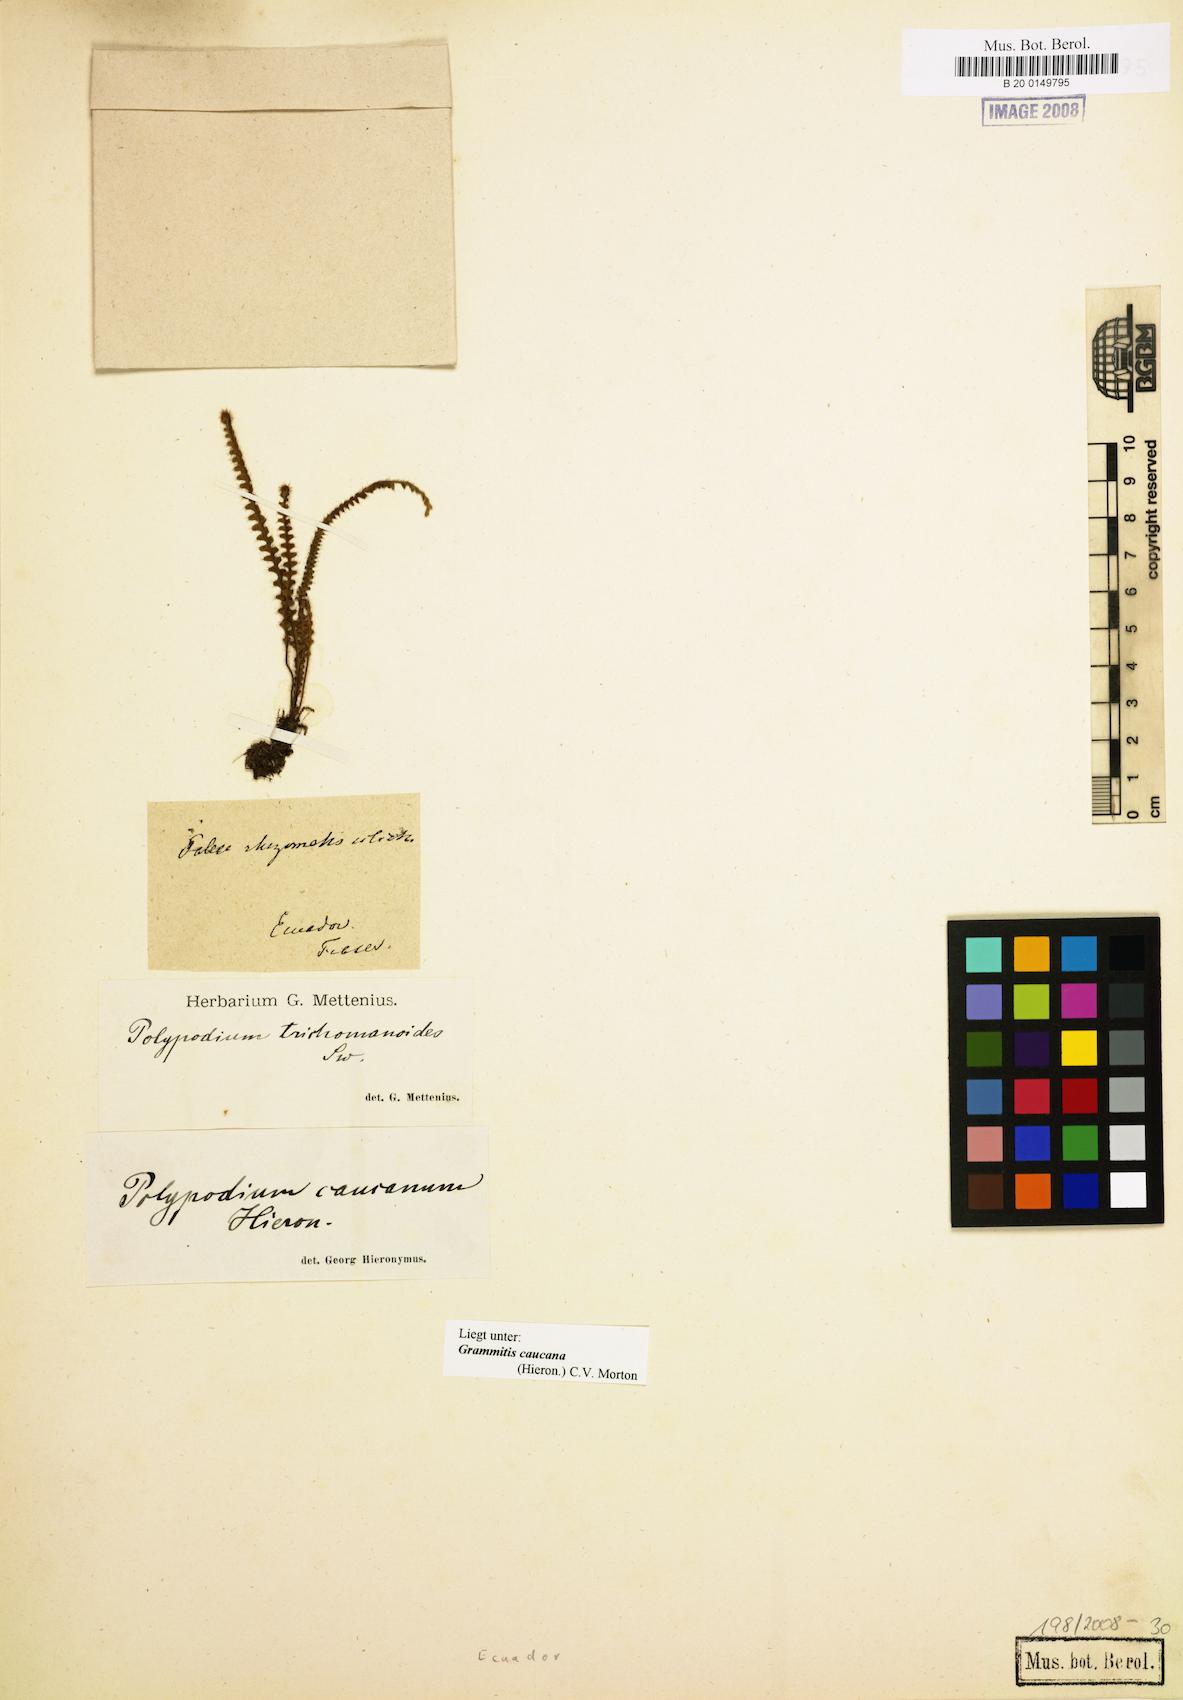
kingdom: Plantae
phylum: Tracheophyta
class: Polypodiopsida
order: Polypodiales
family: Polypodiaceae
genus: Moranopteris
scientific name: Moranopteris caucana
